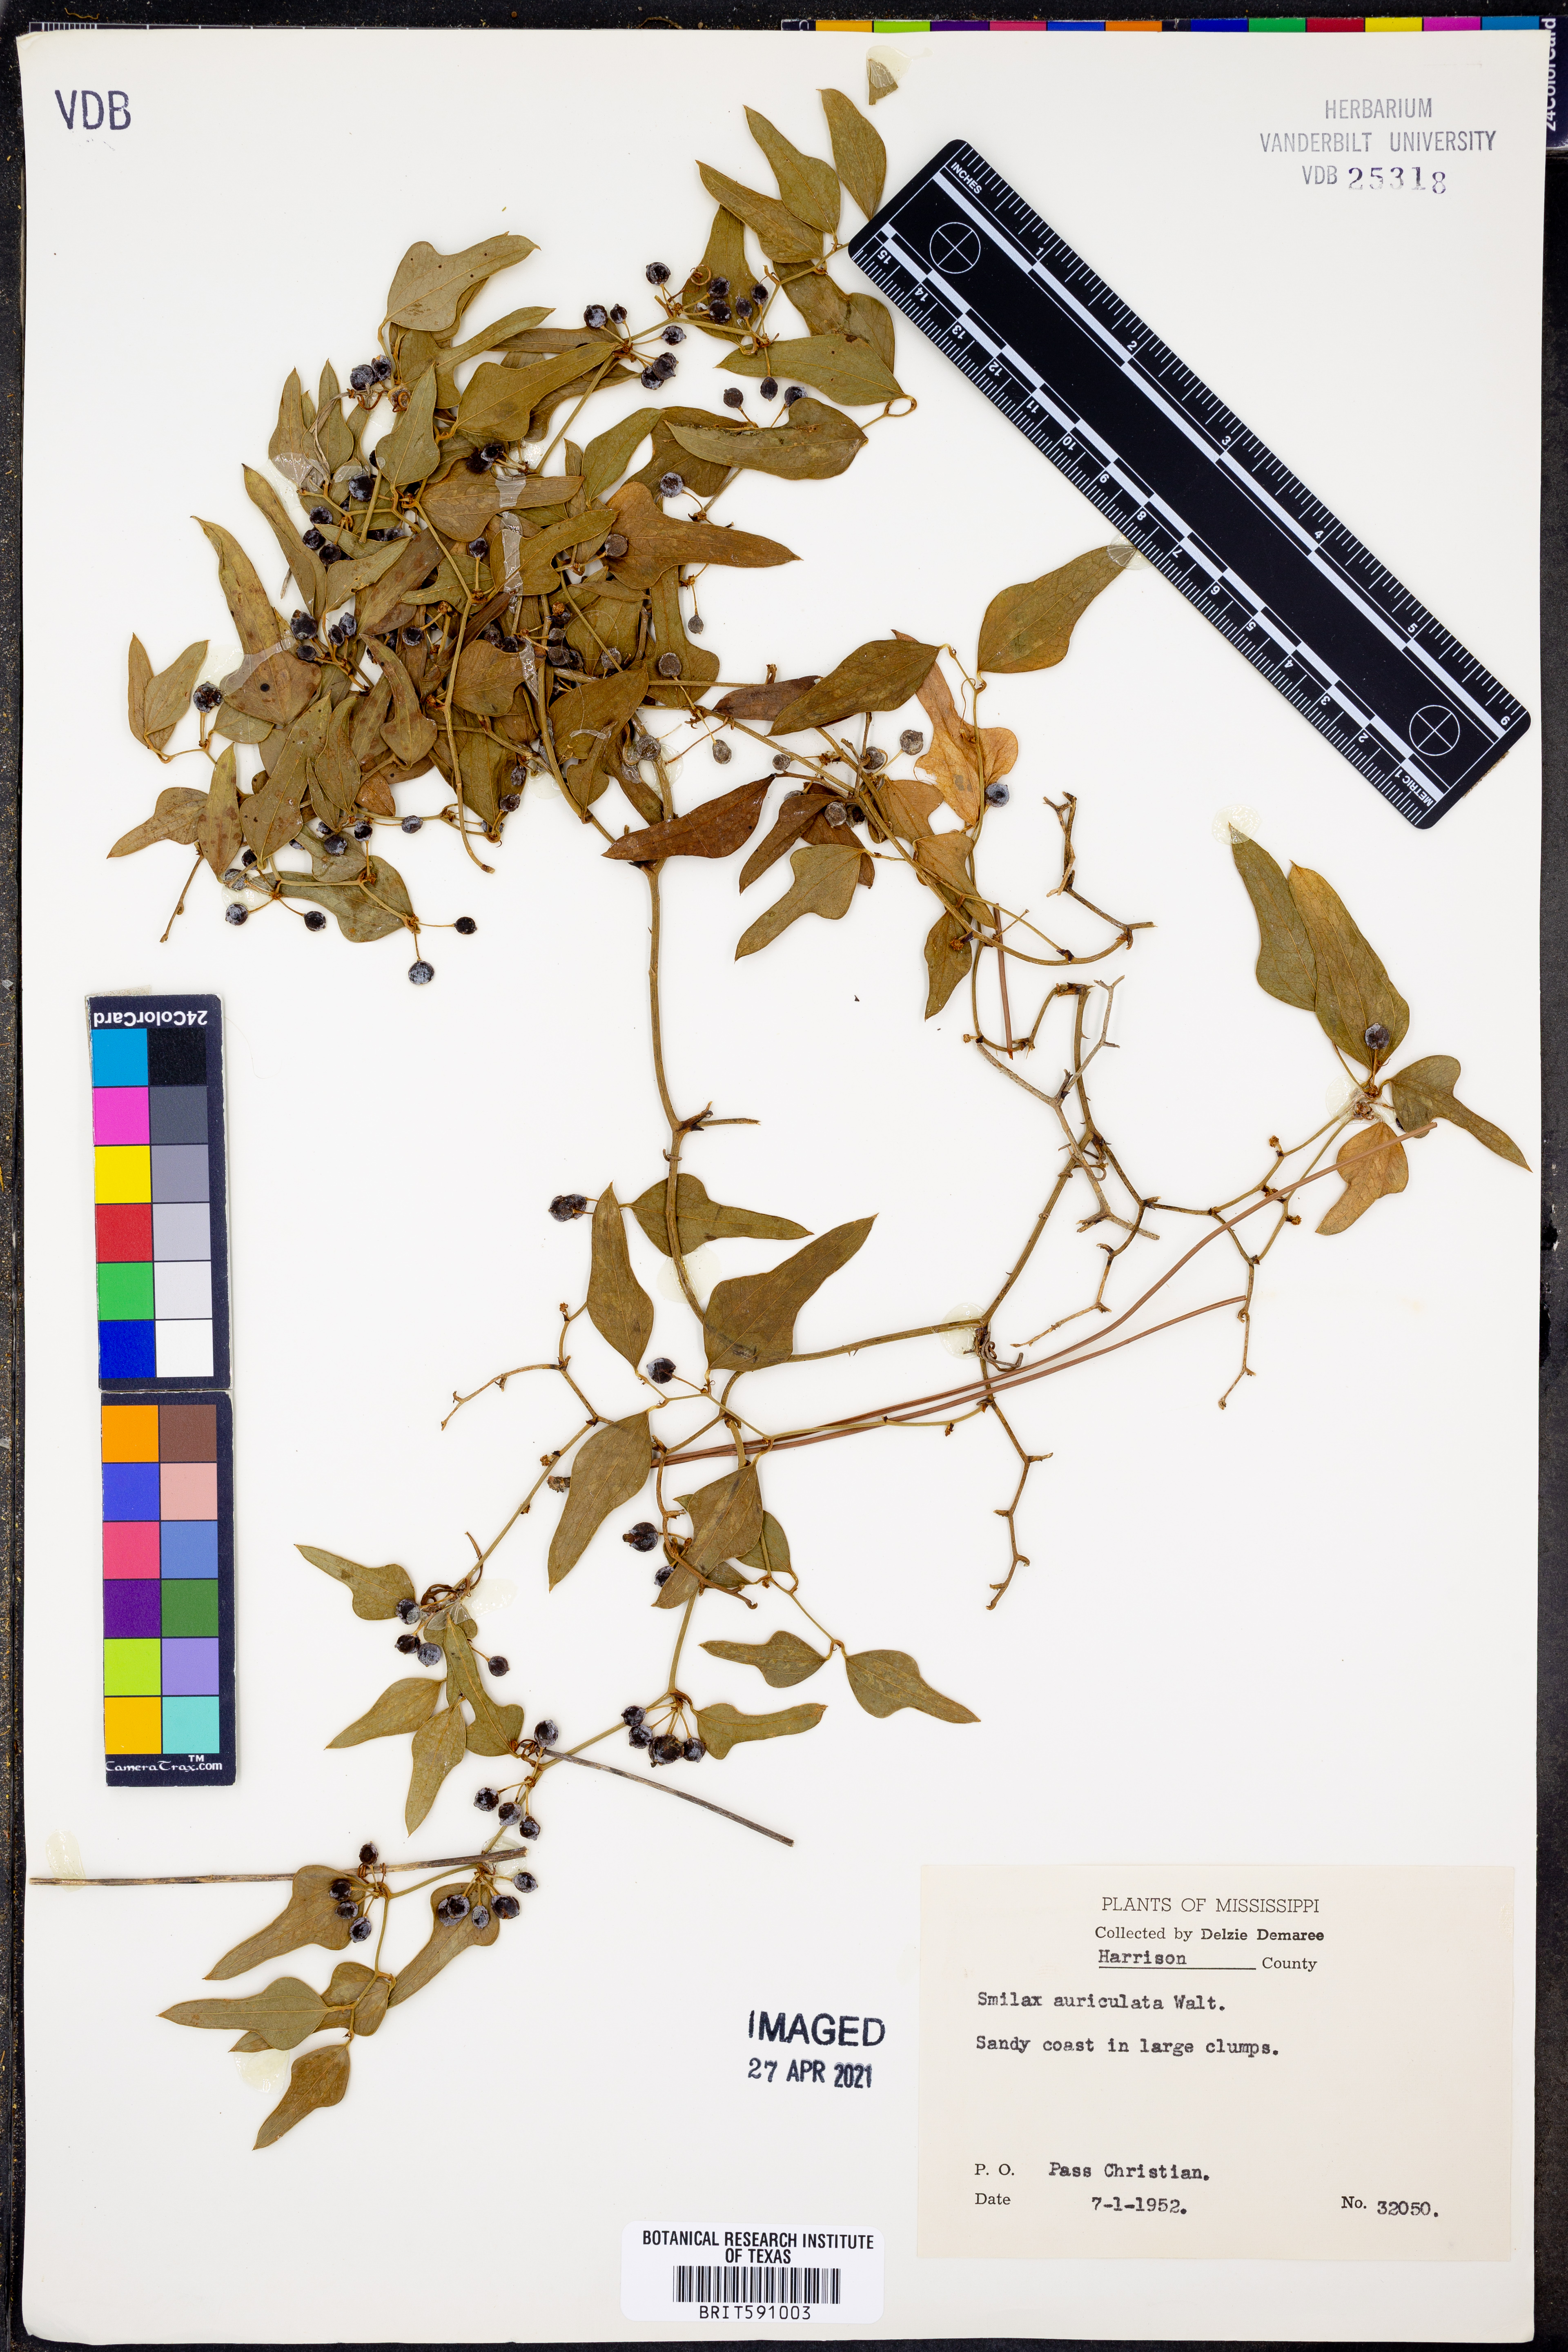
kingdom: Plantae
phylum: Tracheophyta
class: Liliopsida
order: Liliales
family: Smilacaceae
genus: Smilax
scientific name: Smilax auriculata
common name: Wild bamboo
